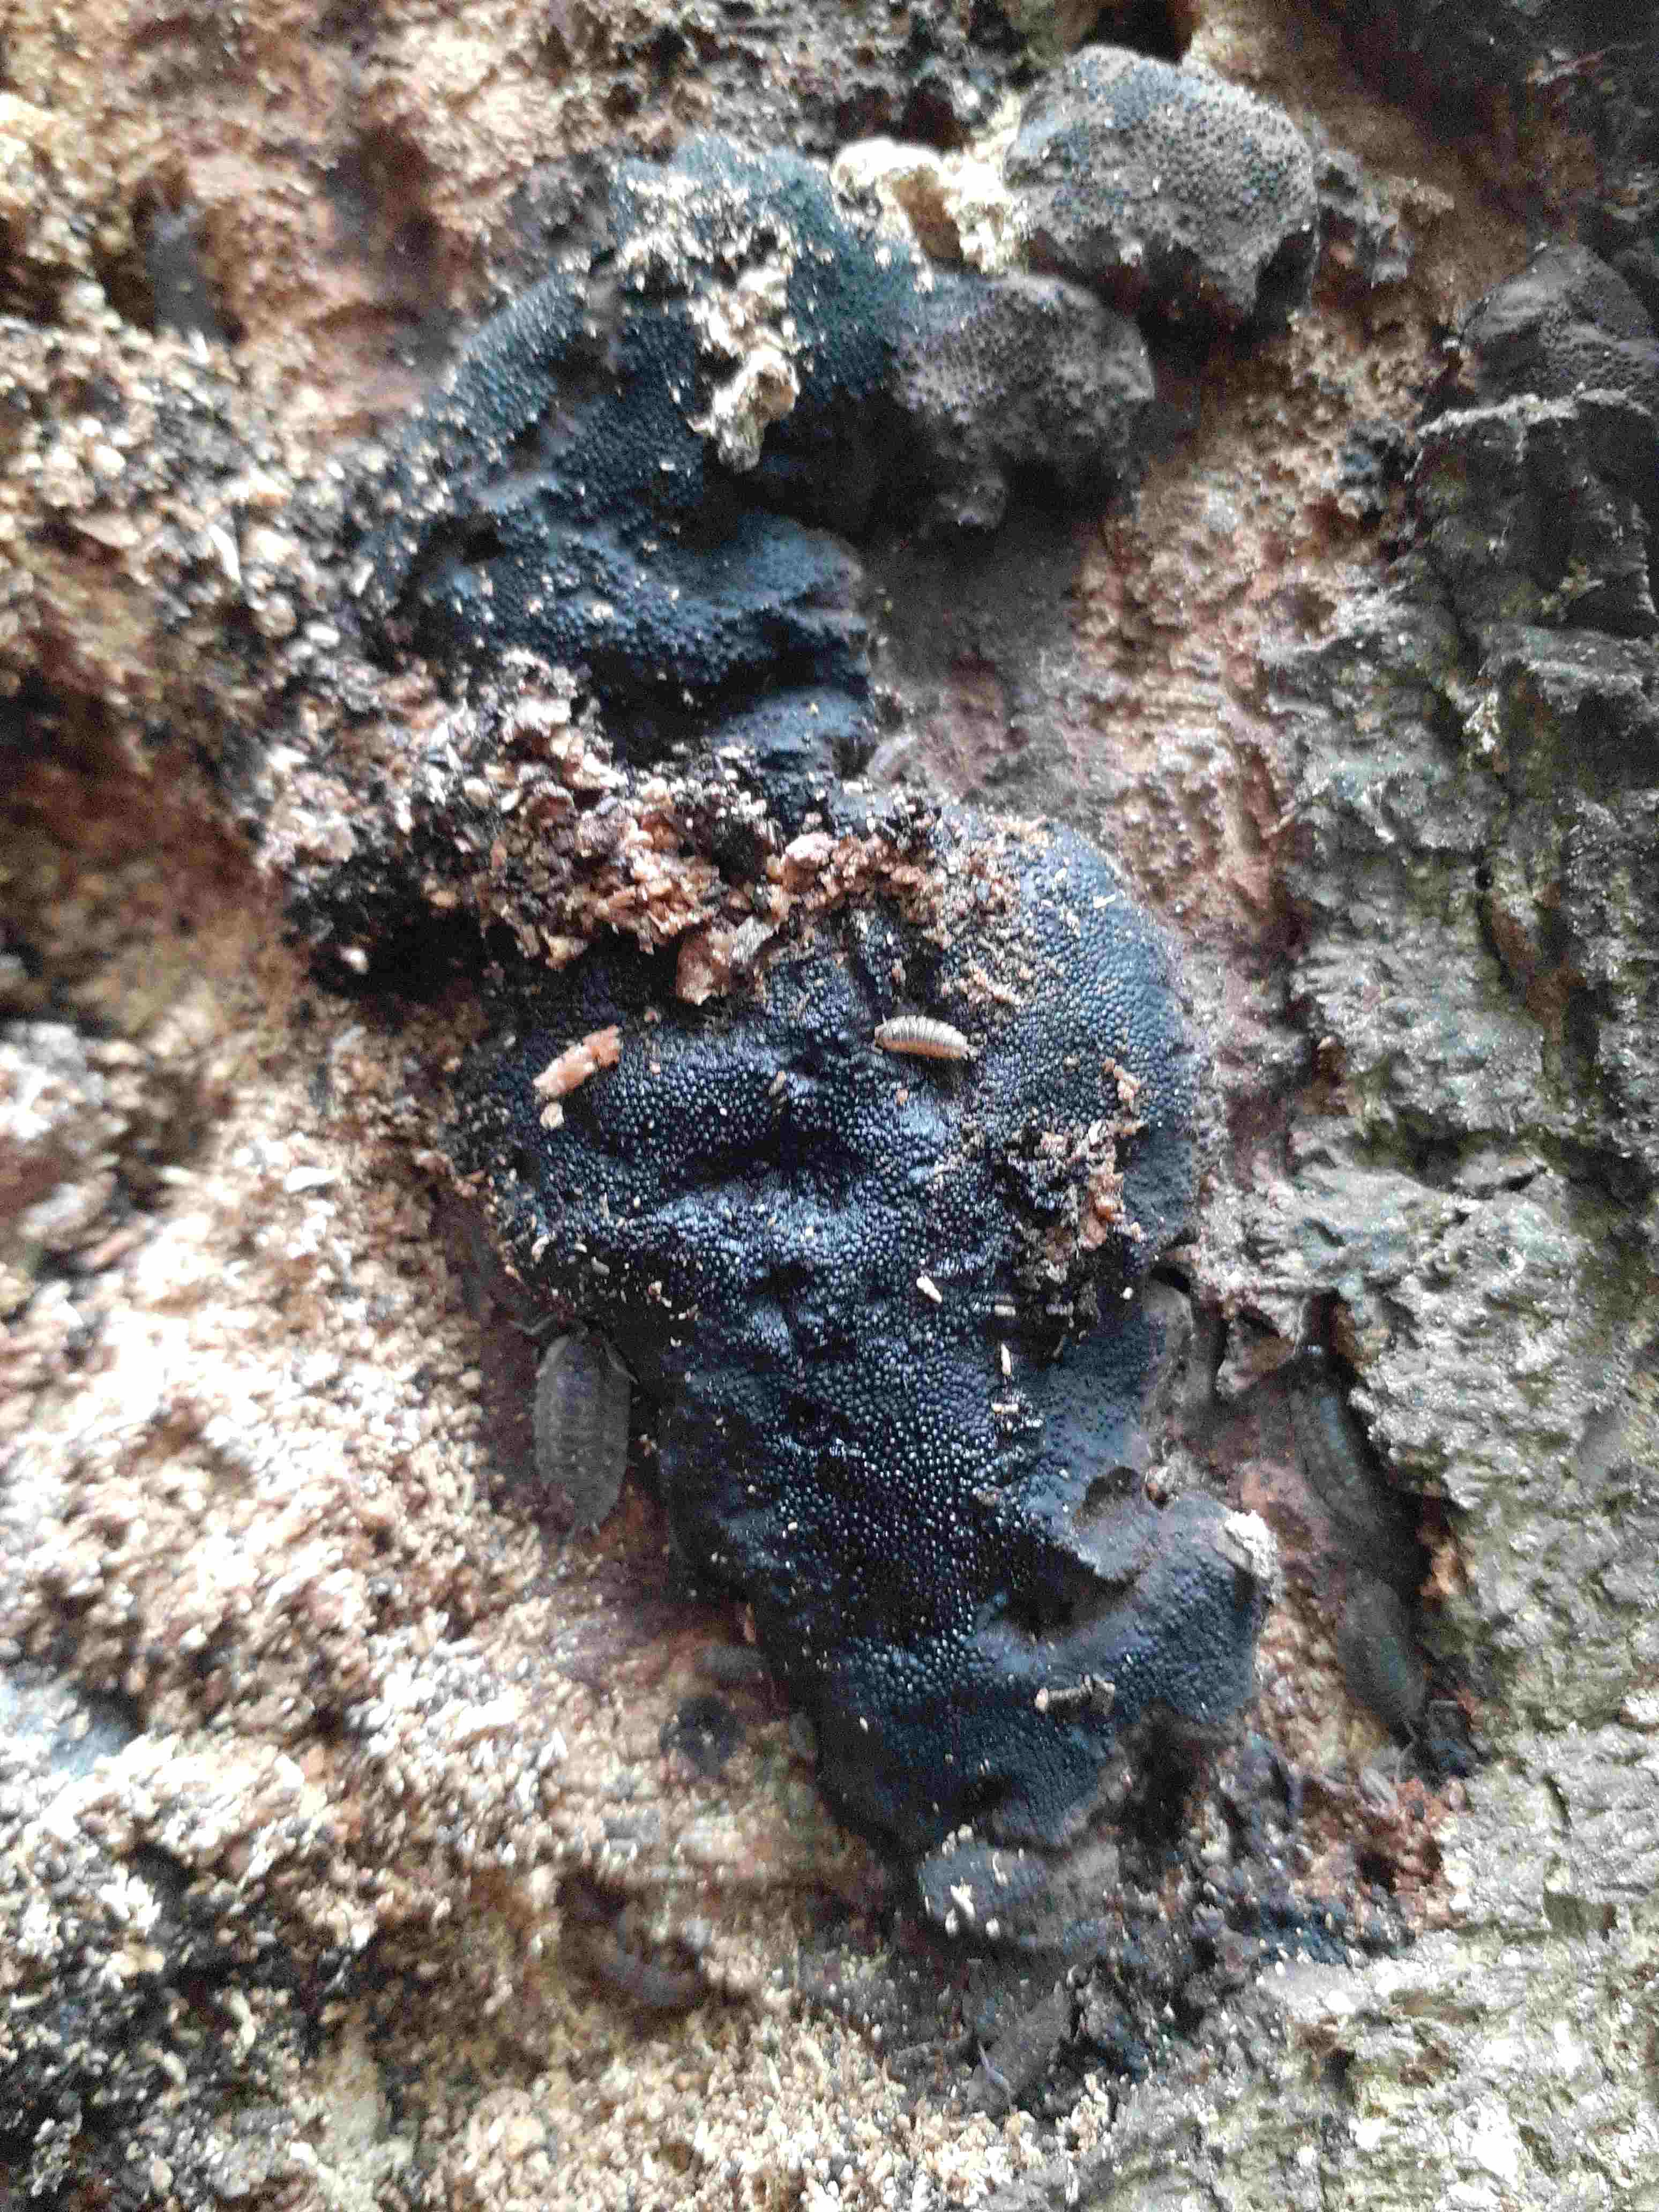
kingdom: Fungi
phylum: Ascomycota
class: Sordariomycetes
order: Boliniales
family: Boliniaceae
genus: Camarops
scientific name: Camarops tubulina
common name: knudret kulsnegl
